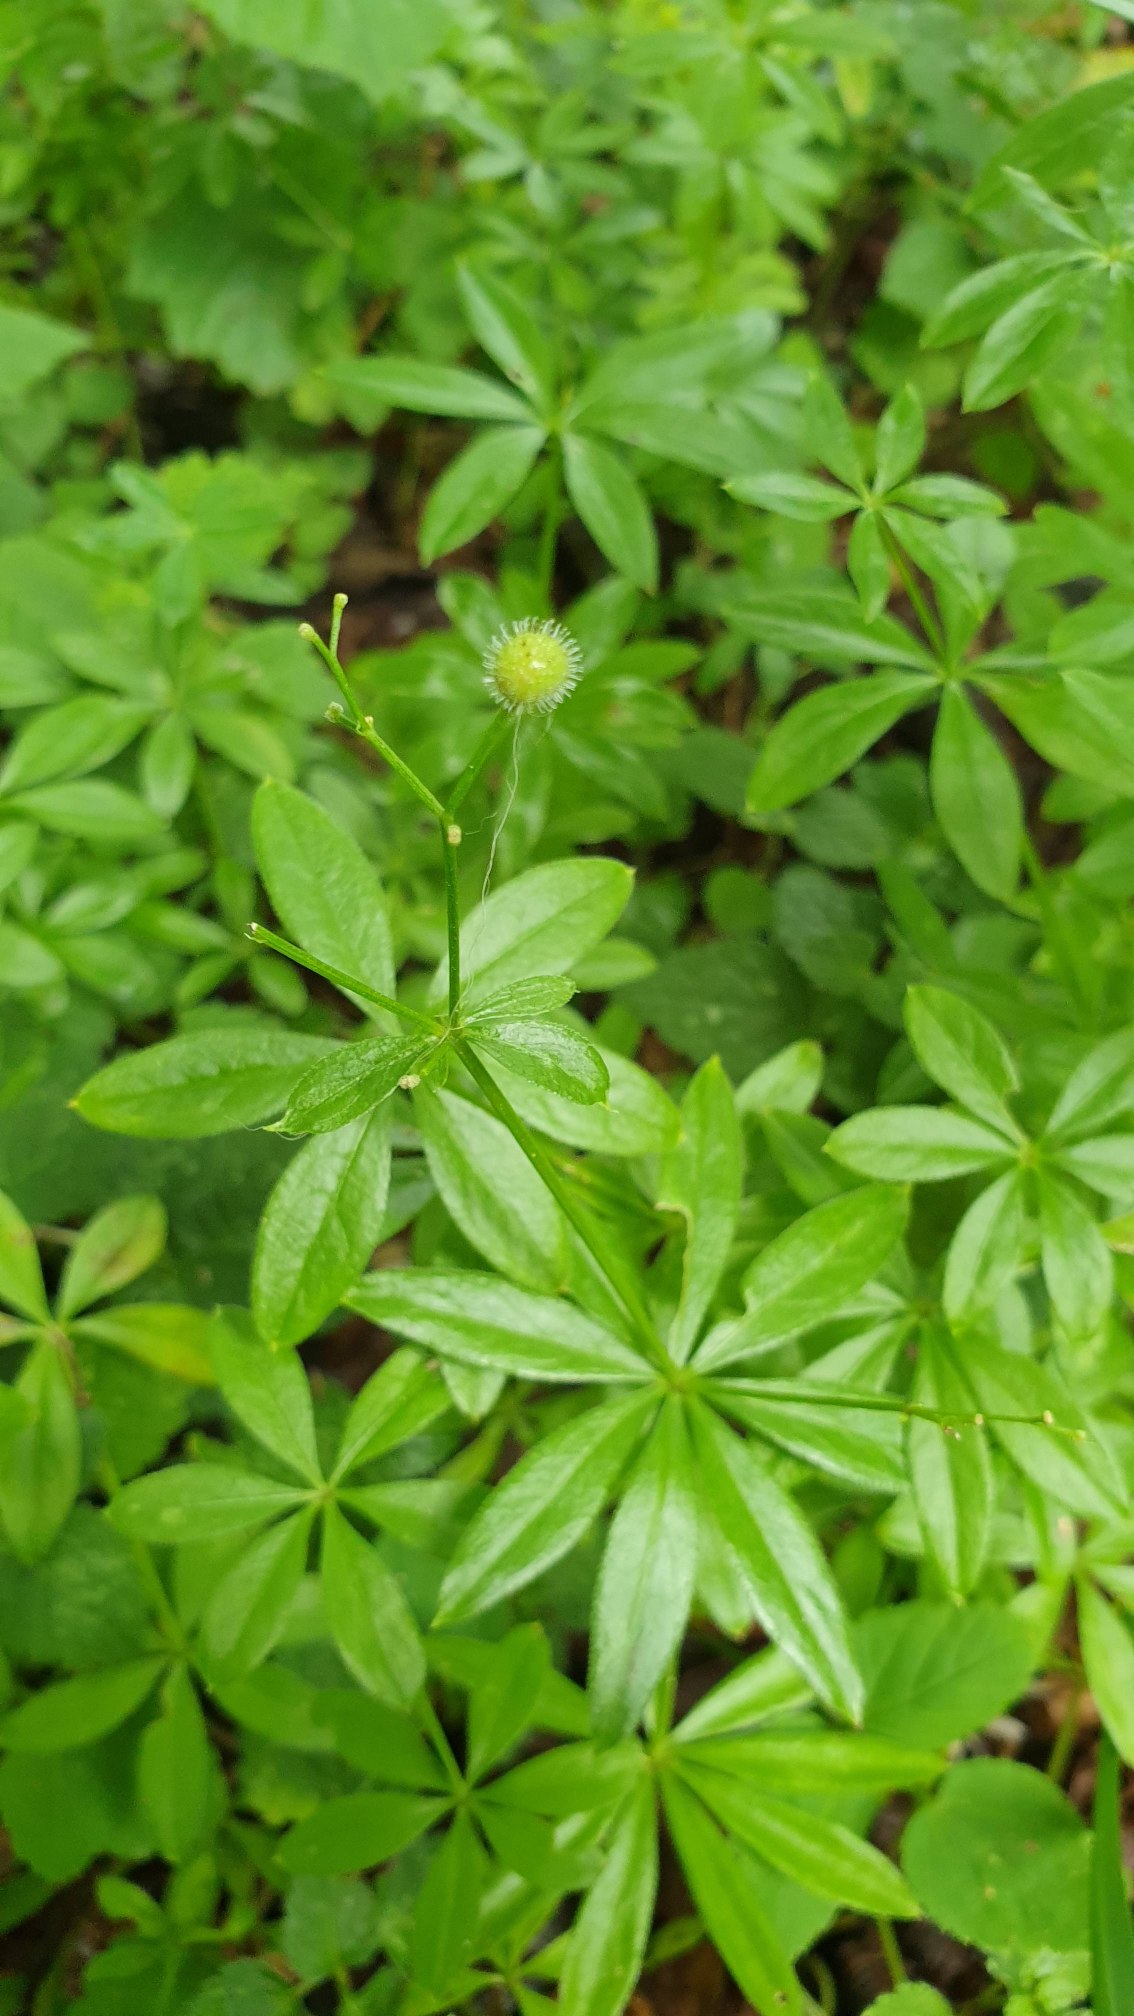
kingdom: Plantae
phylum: Tracheophyta
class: Magnoliopsida
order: Gentianales
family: Rubiaceae
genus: Galium
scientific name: Galium odoratum
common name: Skovmærke
